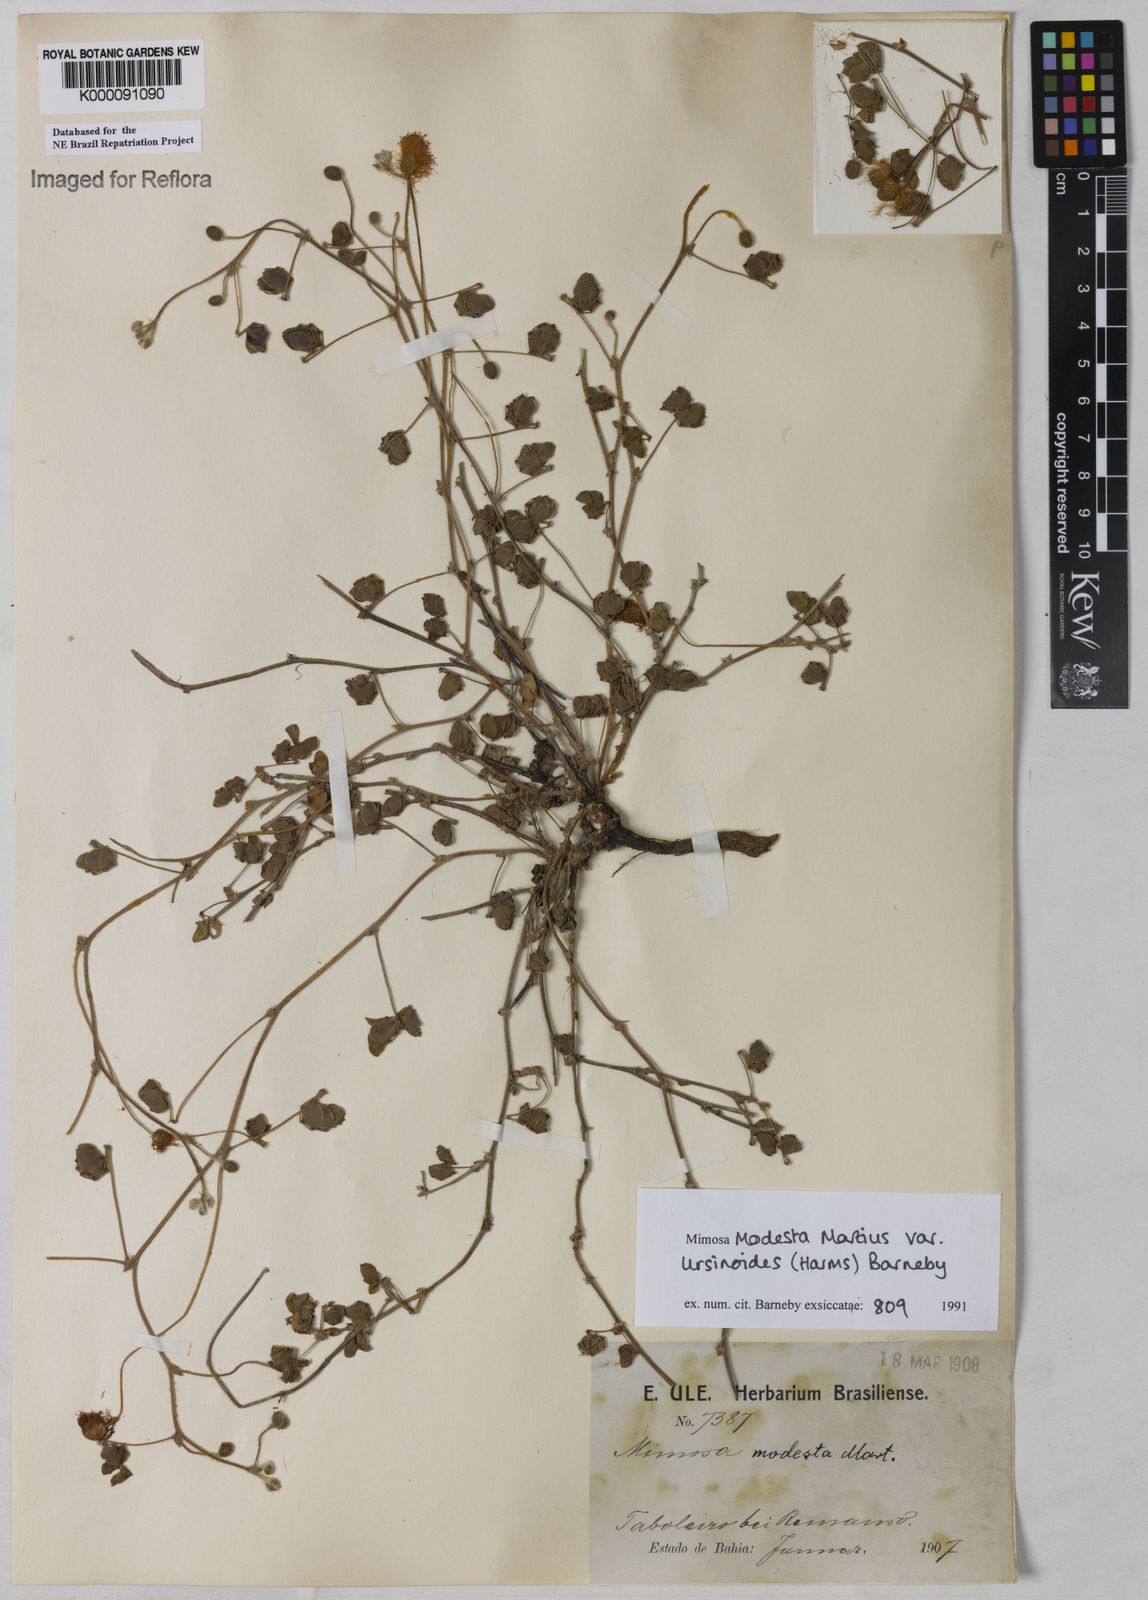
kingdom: Plantae
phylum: Tracheophyta
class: Magnoliopsida
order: Fabales
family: Fabaceae
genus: Mimosa
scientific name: Mimosa modesta
